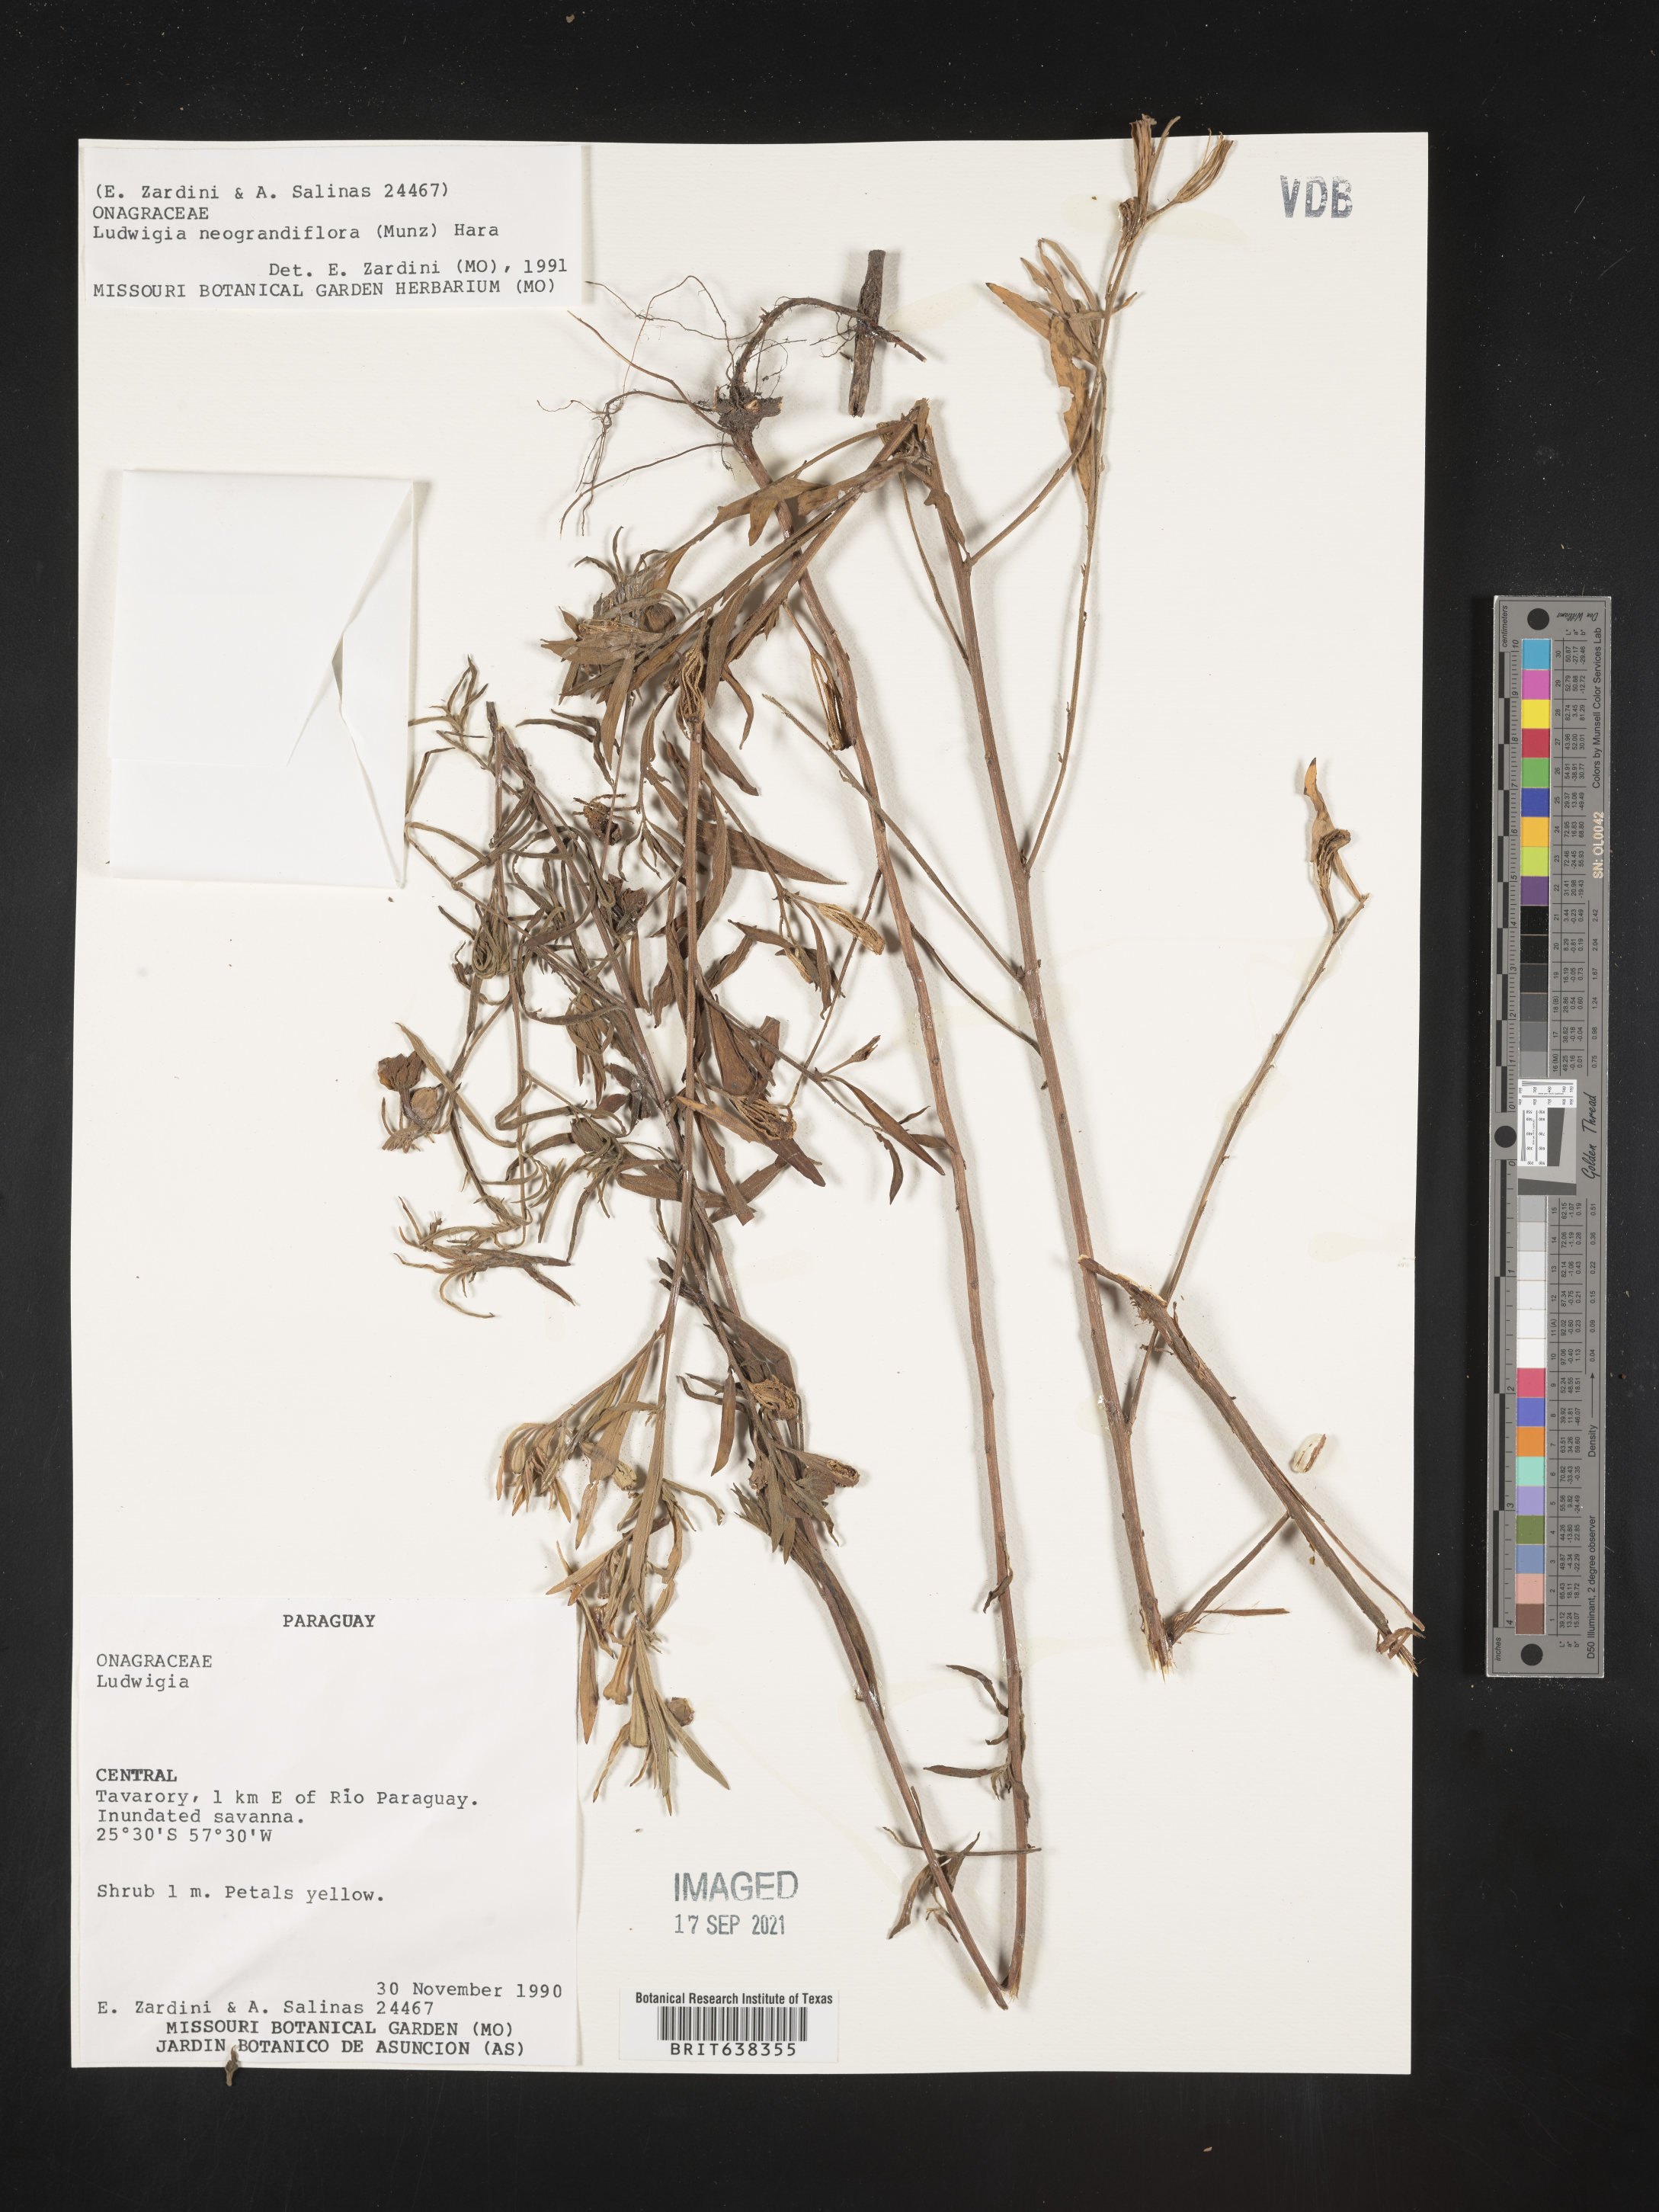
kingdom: Plantae
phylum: Tracheophyta
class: Magnoliopsida
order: Myrtales
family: Onagraceae
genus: Ludwigia
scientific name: Ludwigia
